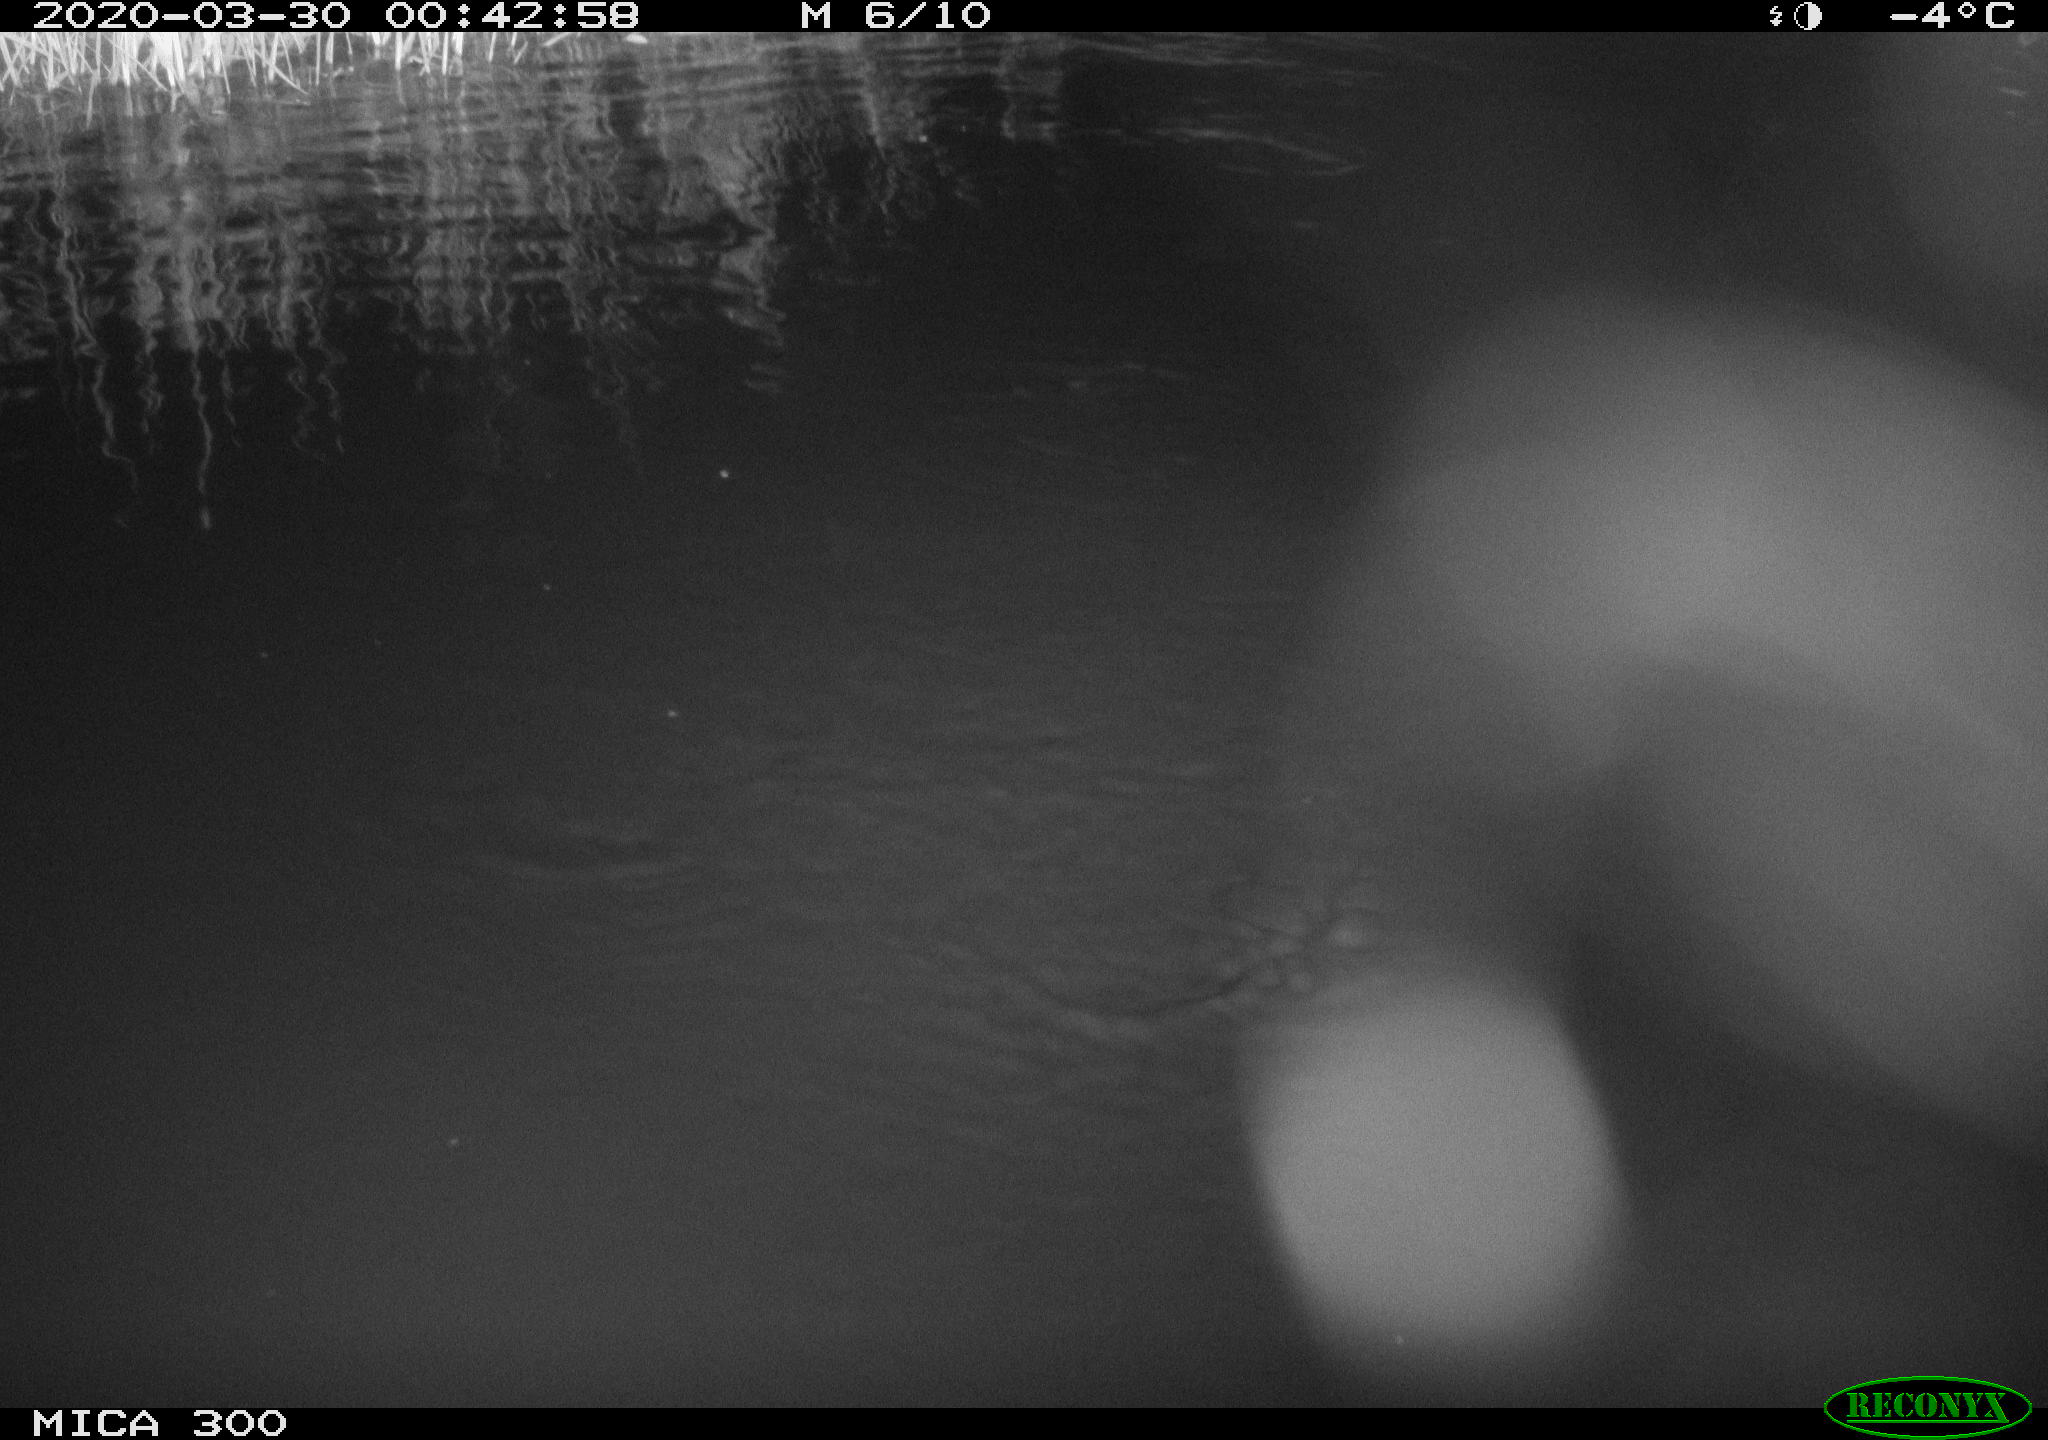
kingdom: Animalia
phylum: Chordata
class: Mammalia
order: Rodentia
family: Castoridae
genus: Castor
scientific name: Castor fiber
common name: Eurasian beaver
